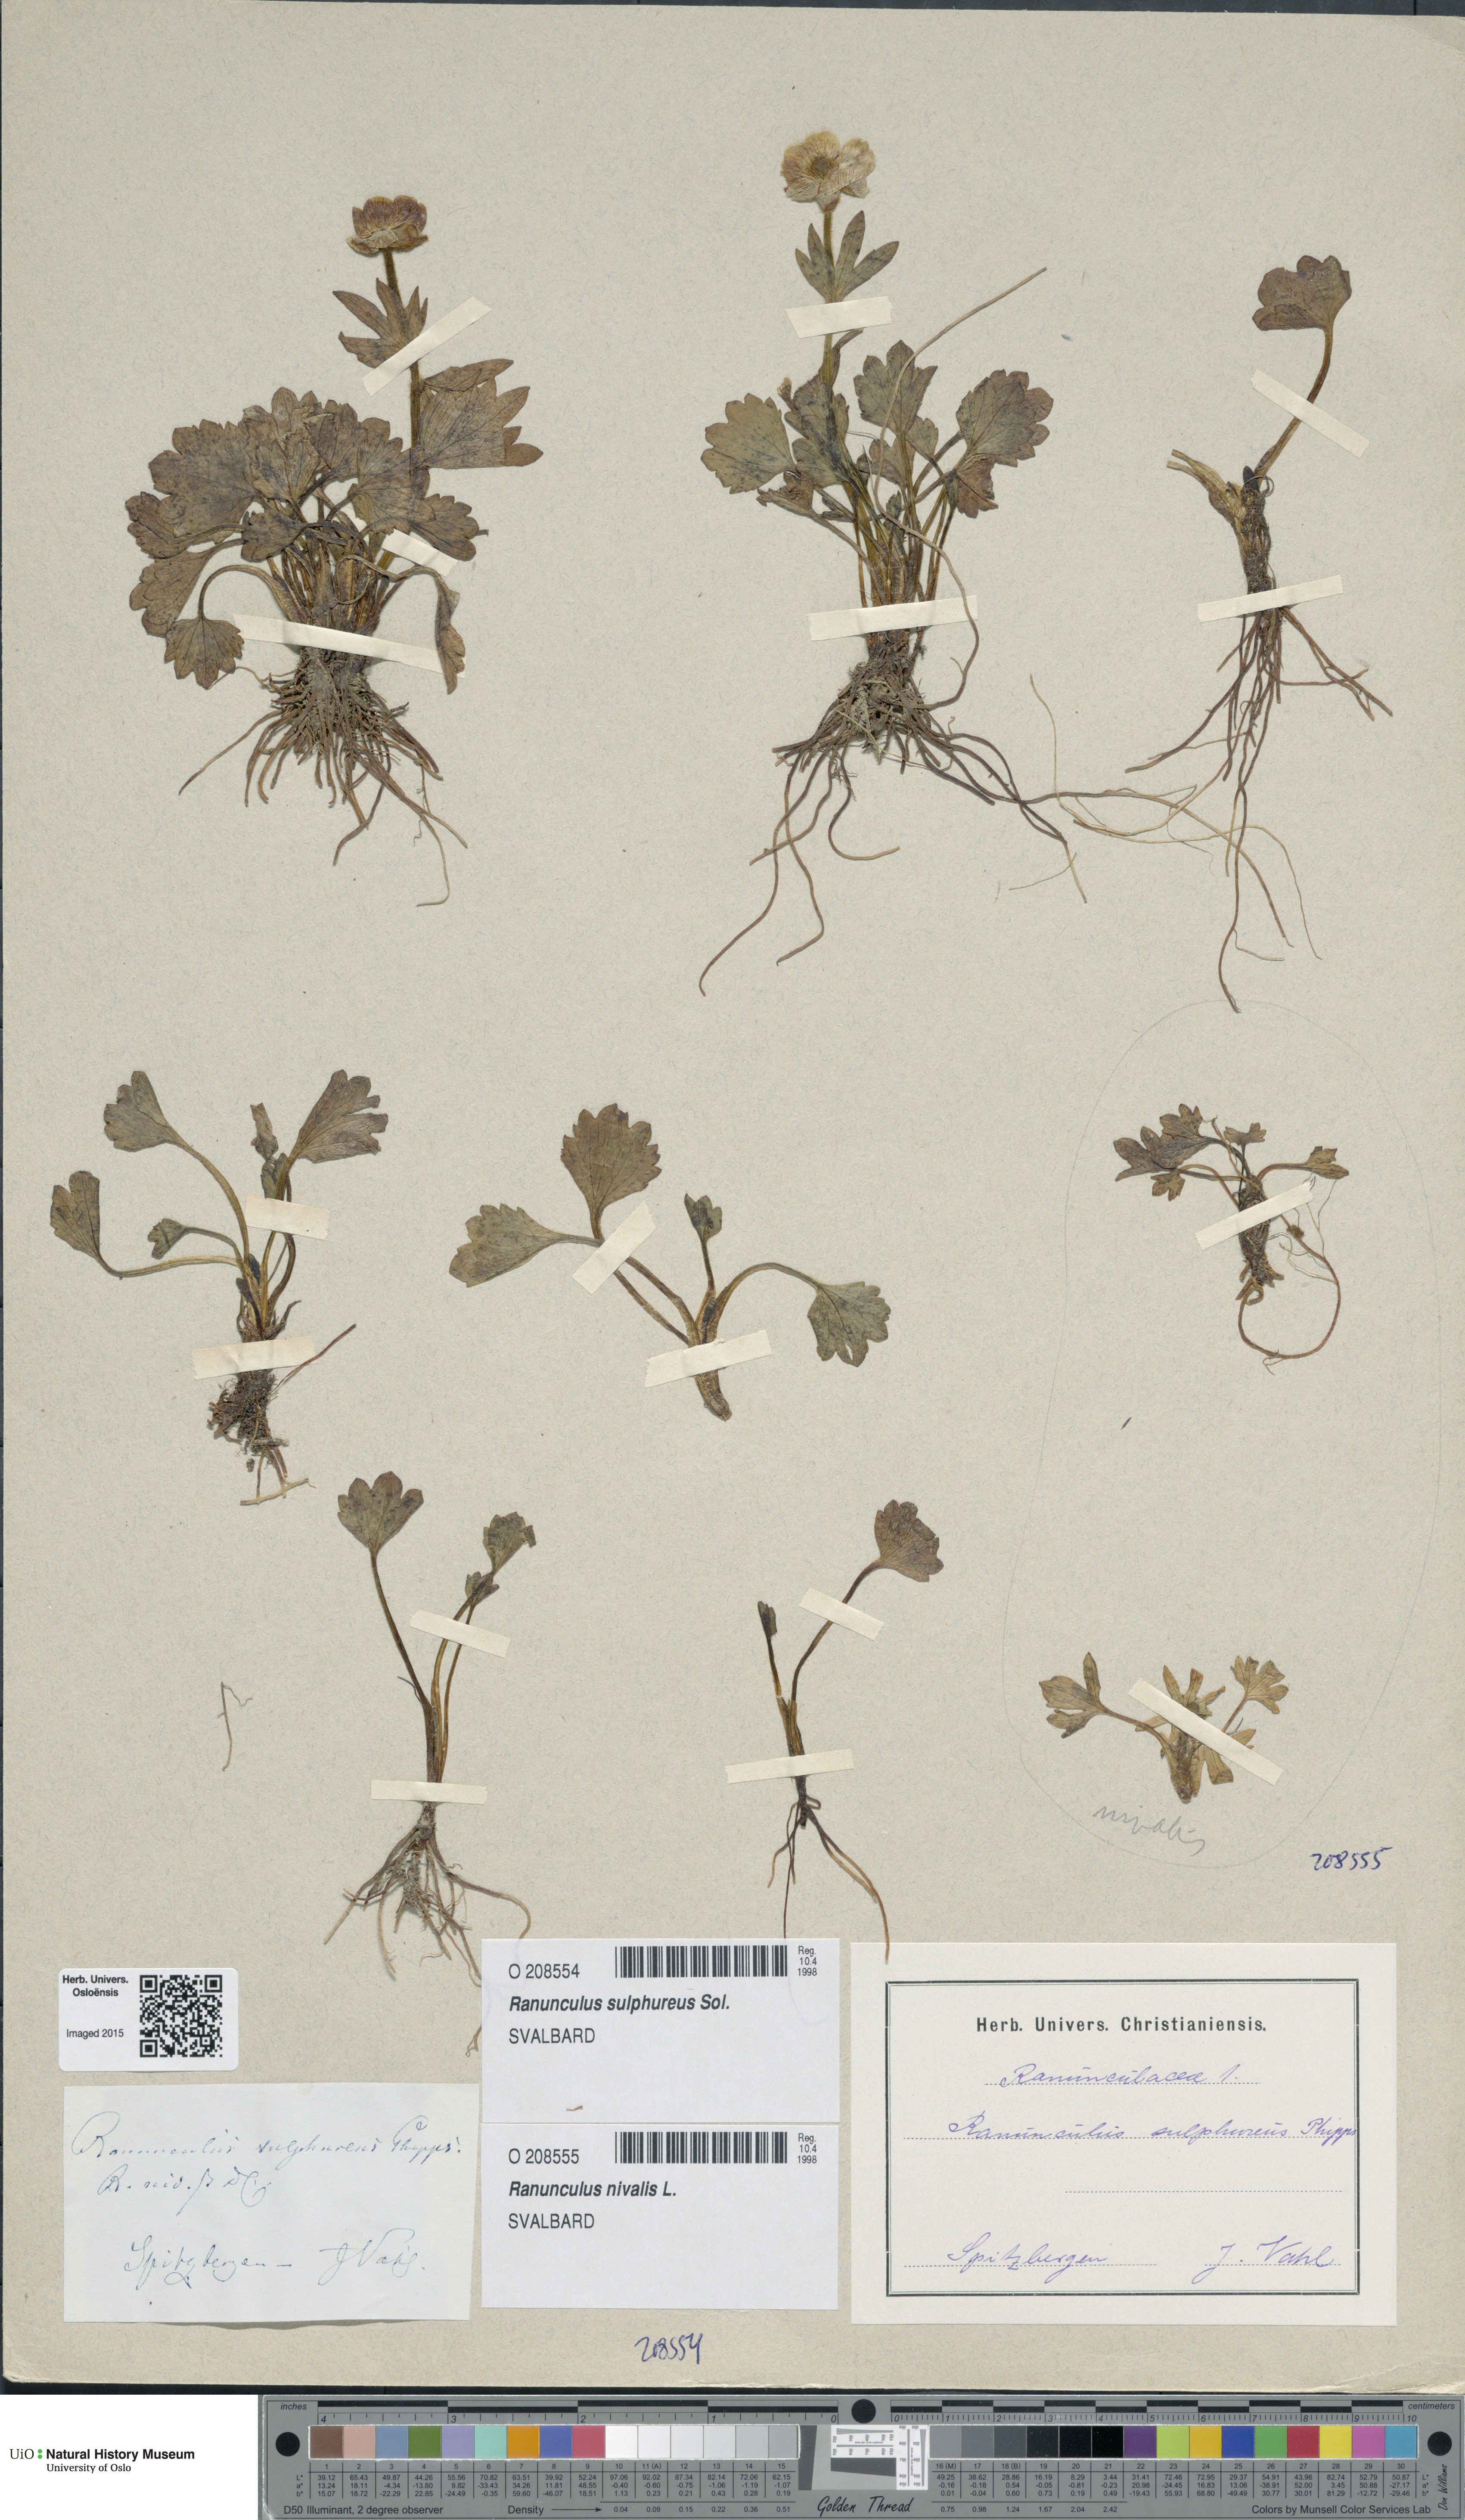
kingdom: Plantae
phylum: Tracheophyta
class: Magnoliopsida
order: Ranunculales
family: Ranunculaceae
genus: Ranunculus
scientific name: Ranunculus nivalis
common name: Snow buttercup
